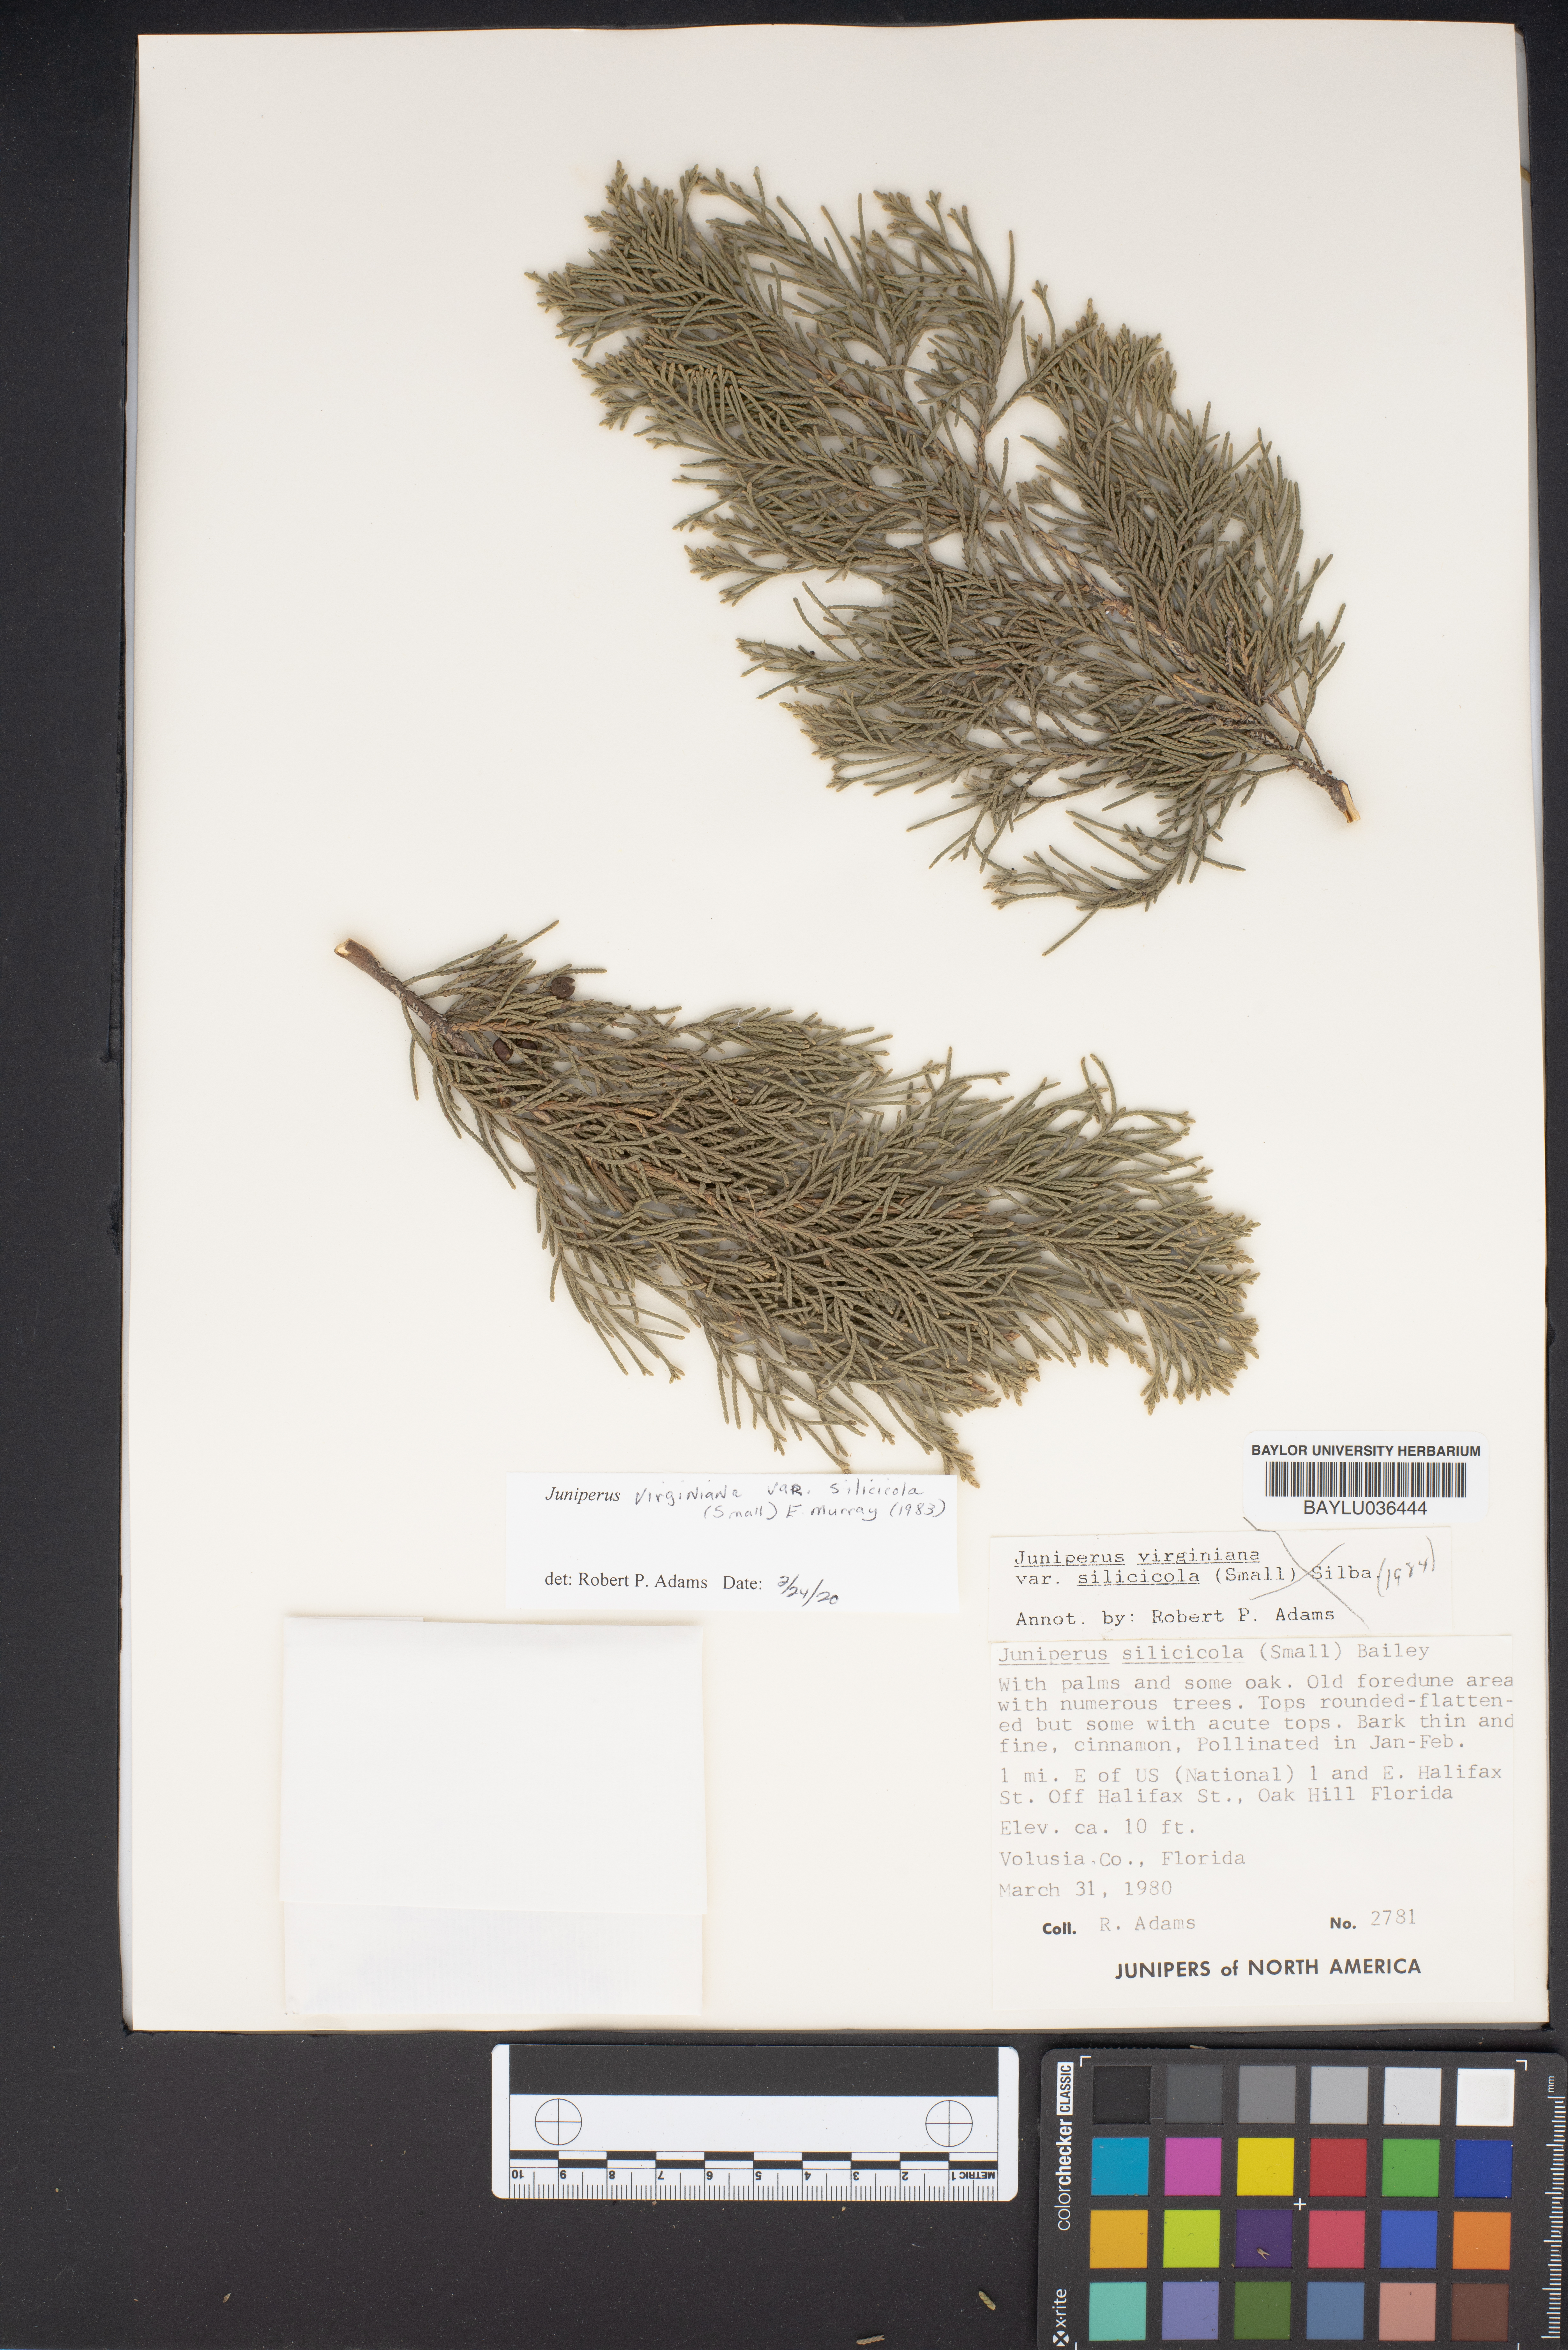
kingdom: Plantae
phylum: Tracheophyta
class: Pinopsida
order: Pinales
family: Cupressaceae
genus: Juniperus
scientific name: Juniperus virginiana
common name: Red juniper
